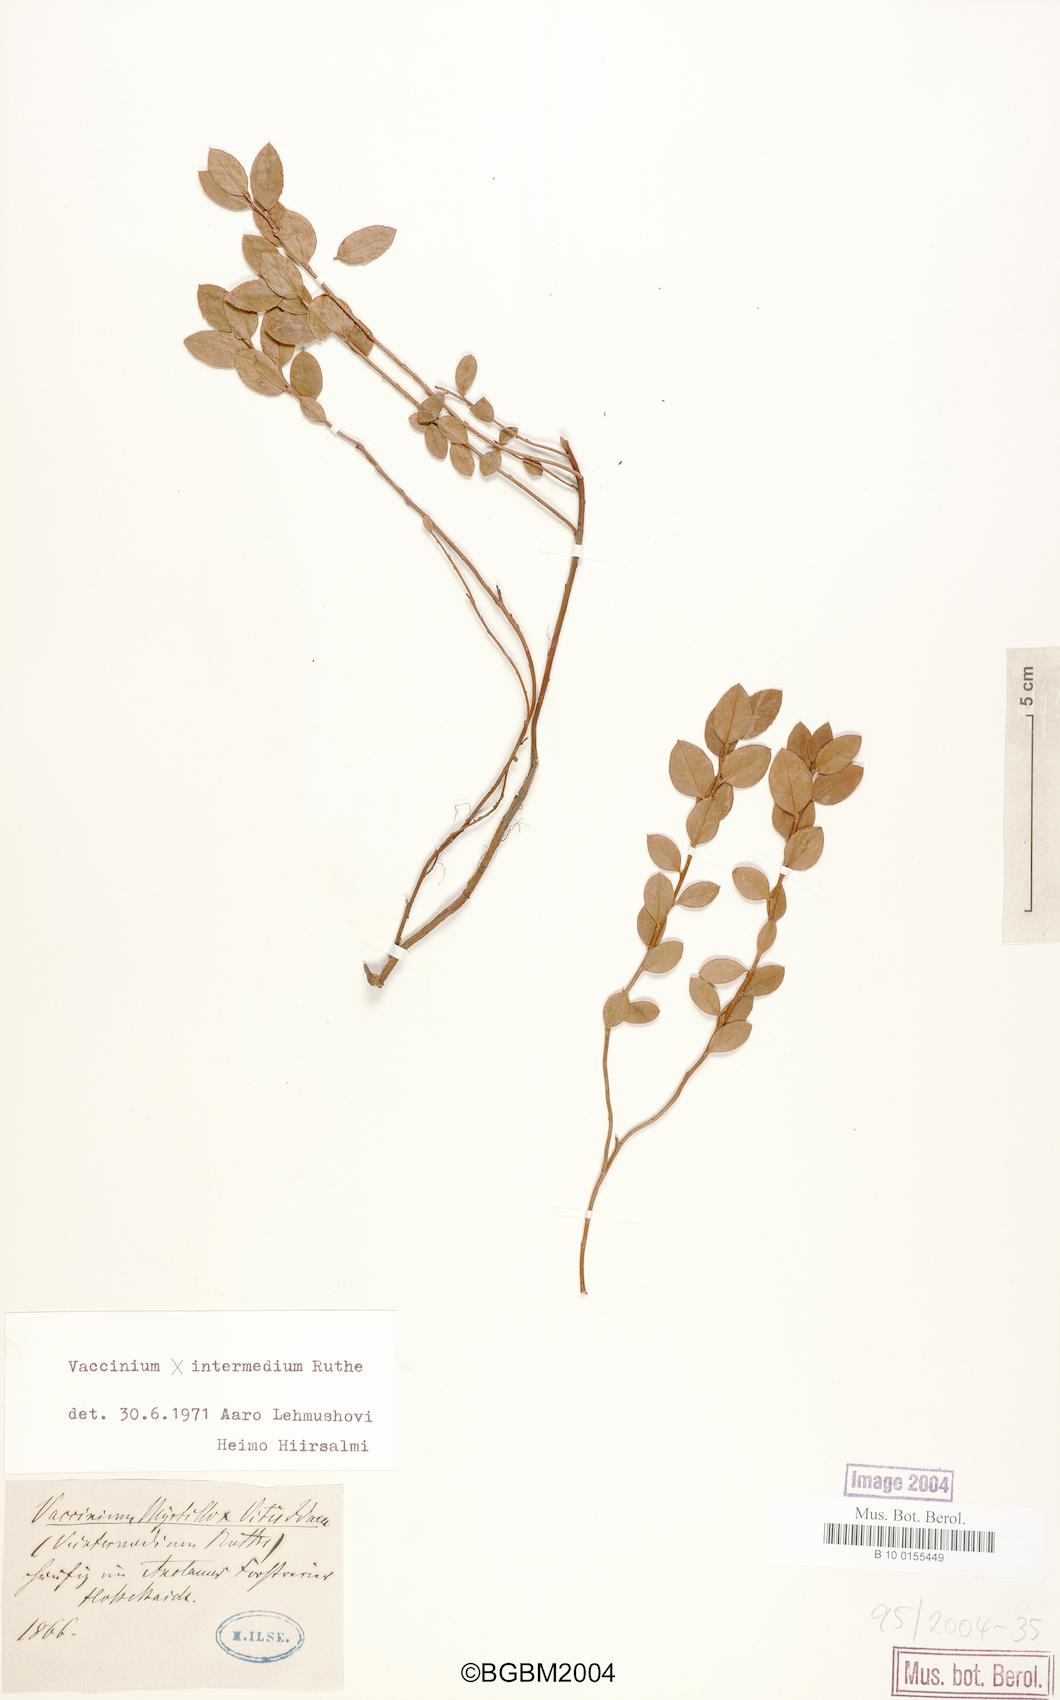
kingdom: Plantae
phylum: Tracheophyta
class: Magnoliopsida
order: Ericales
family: Ericaceae
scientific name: Ericaceae
